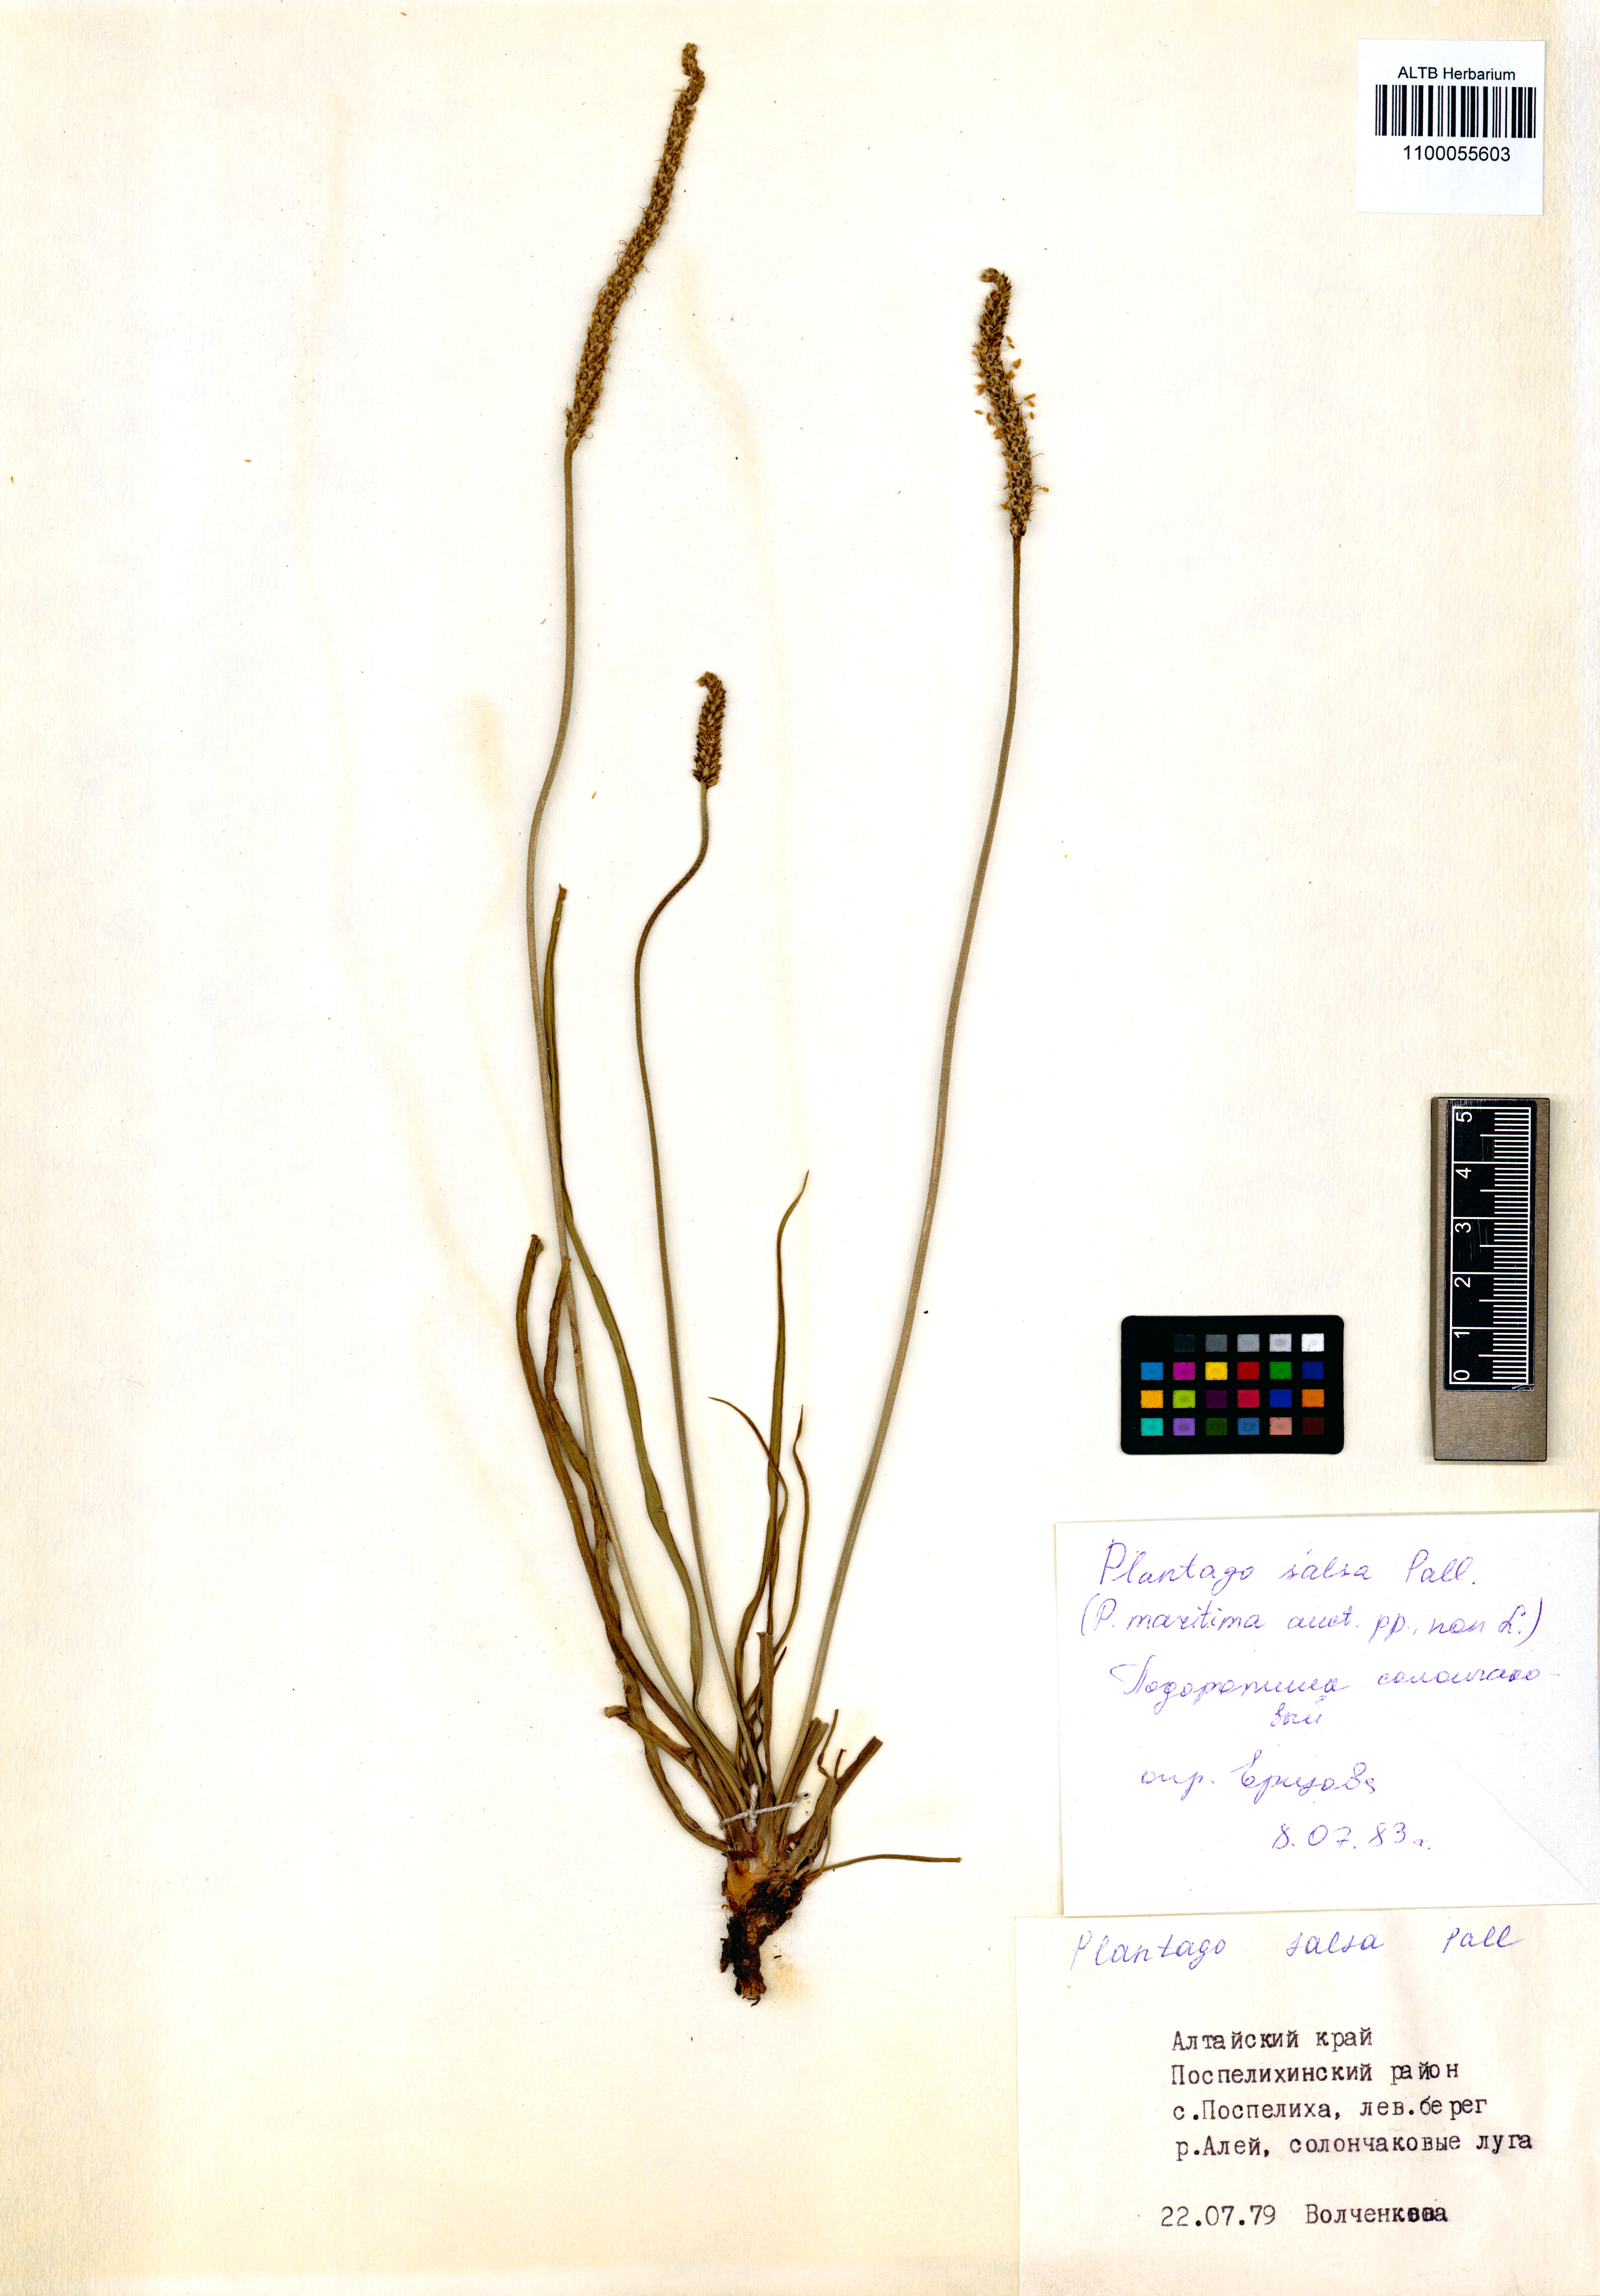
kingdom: Plantae
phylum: Tracheophyta
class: Magnoliopsida
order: Lamiales
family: Plantaginaceae
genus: Plantago
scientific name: Plantago salsa
